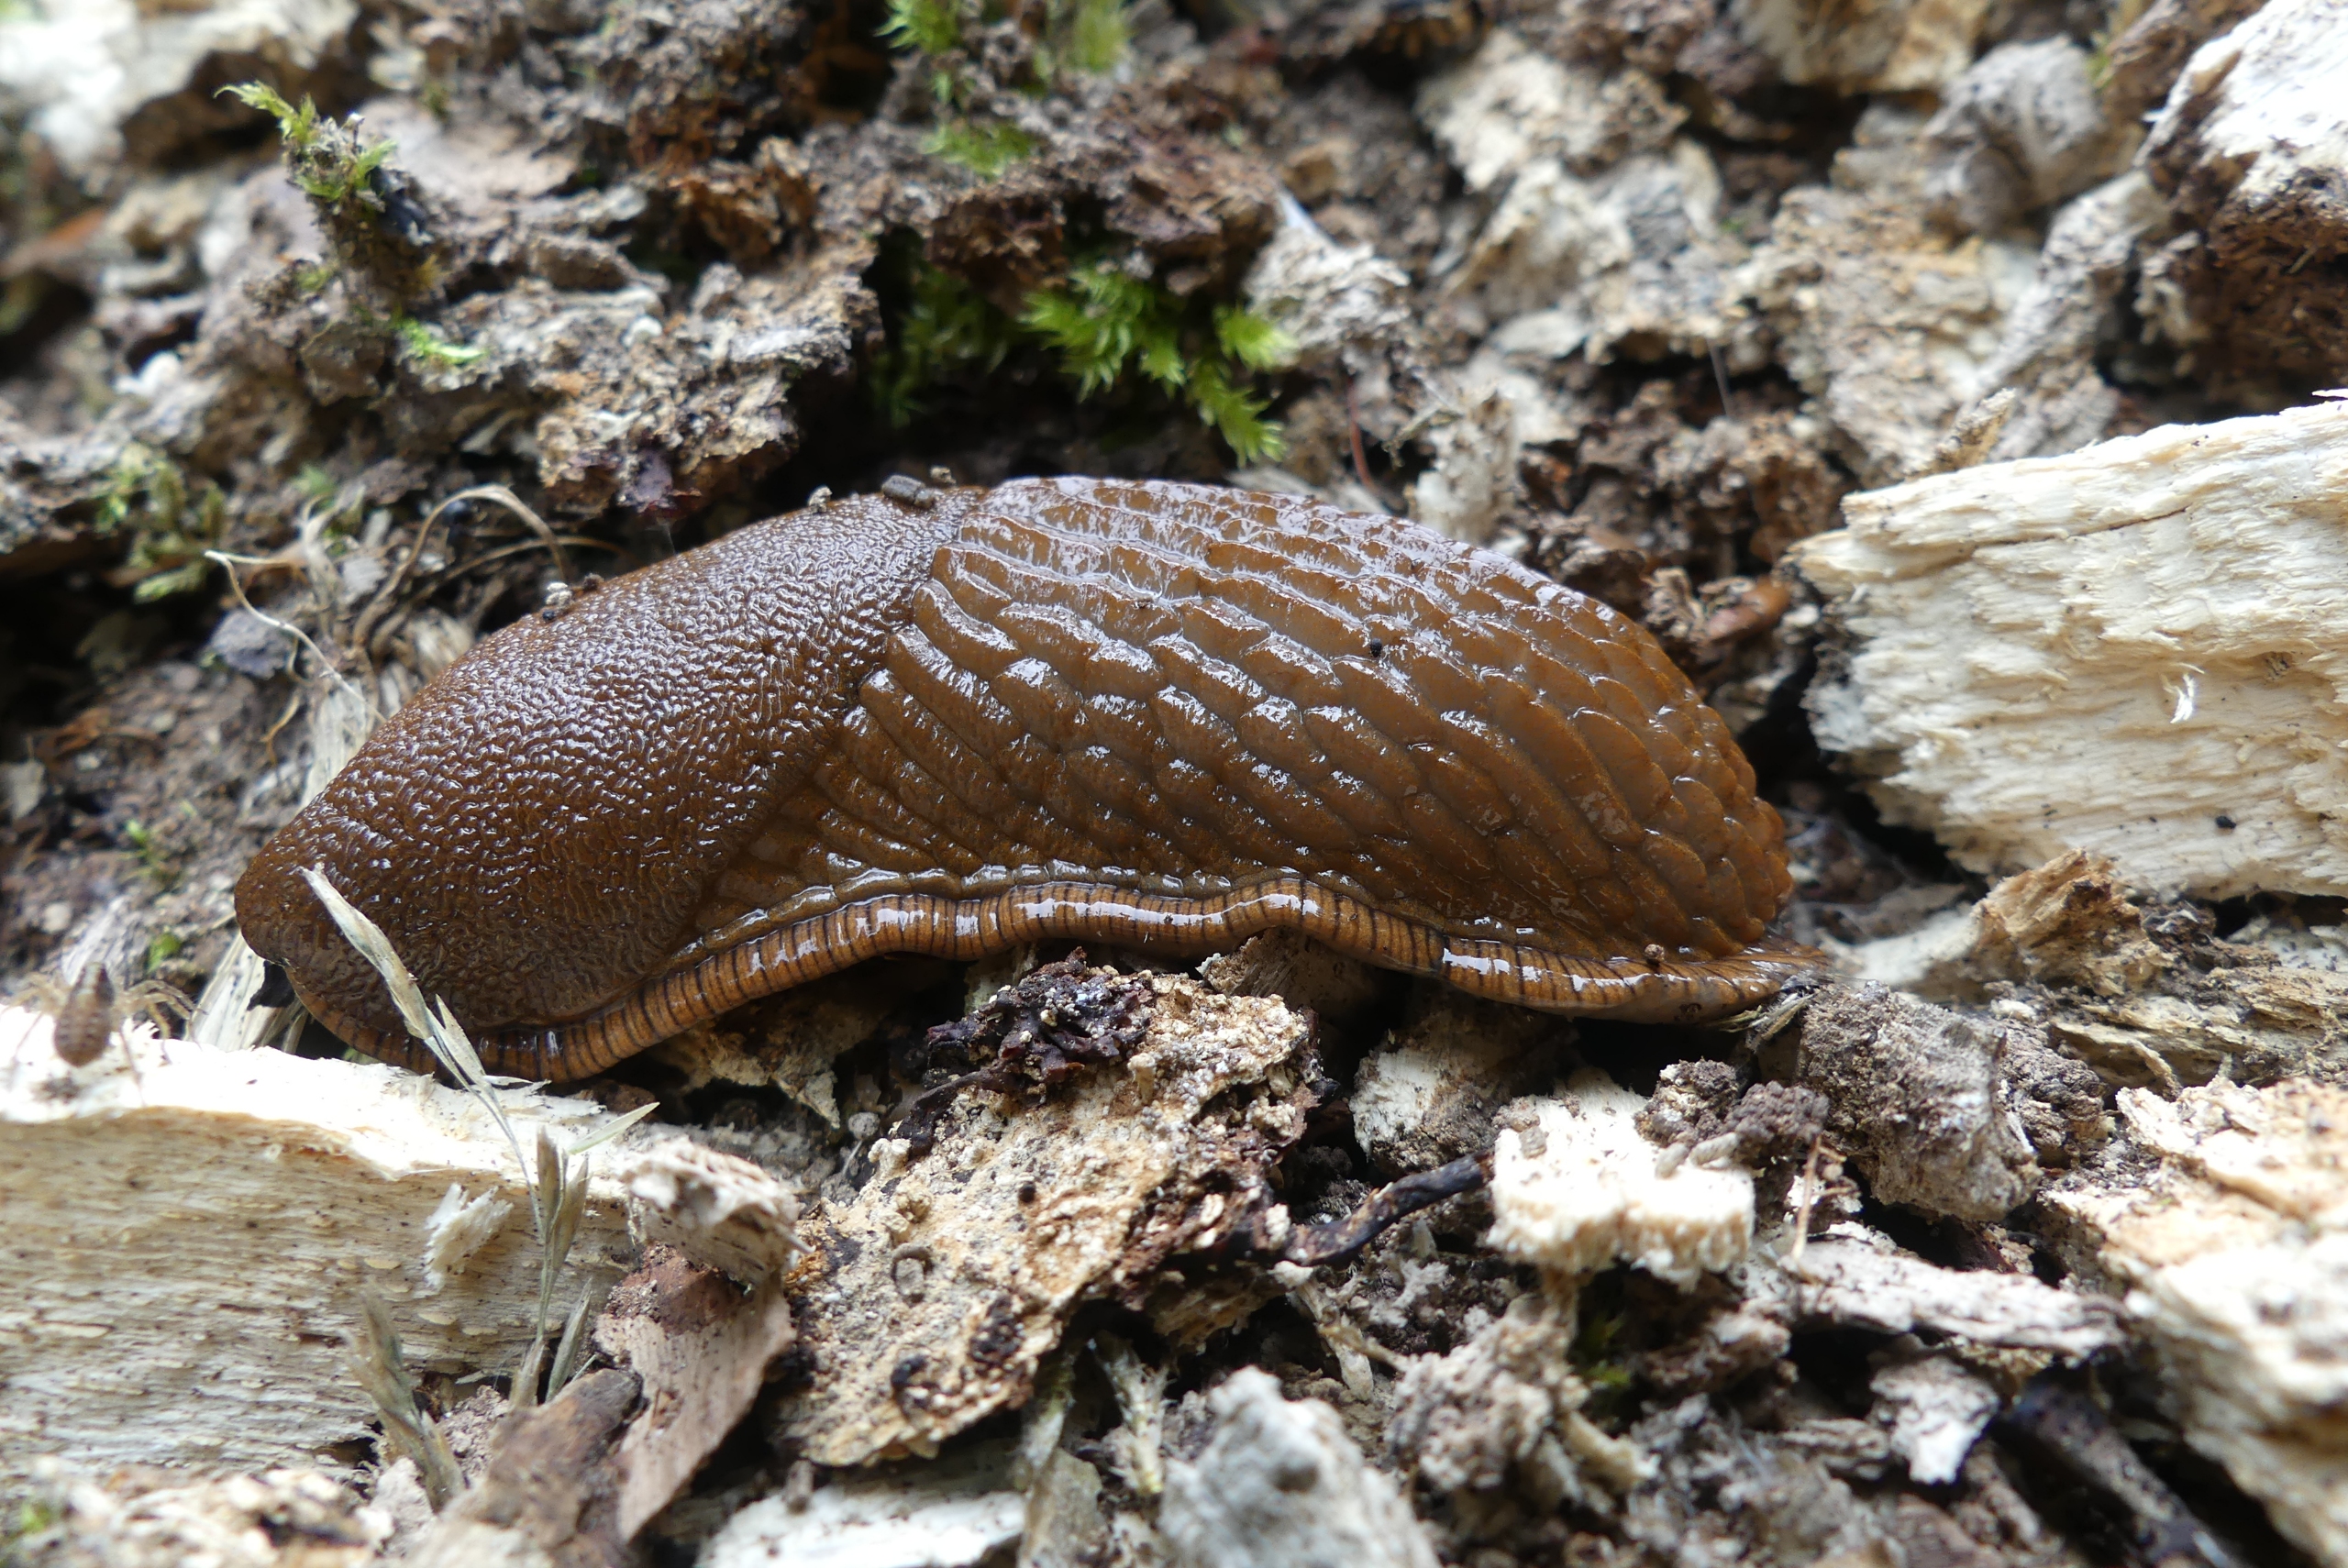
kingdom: Animalia
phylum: Mollusca
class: Gastropoda
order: Stylommatophora
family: Arionidae
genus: Arion
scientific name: Arion vulgaris
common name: Iberisk skovsnegl
